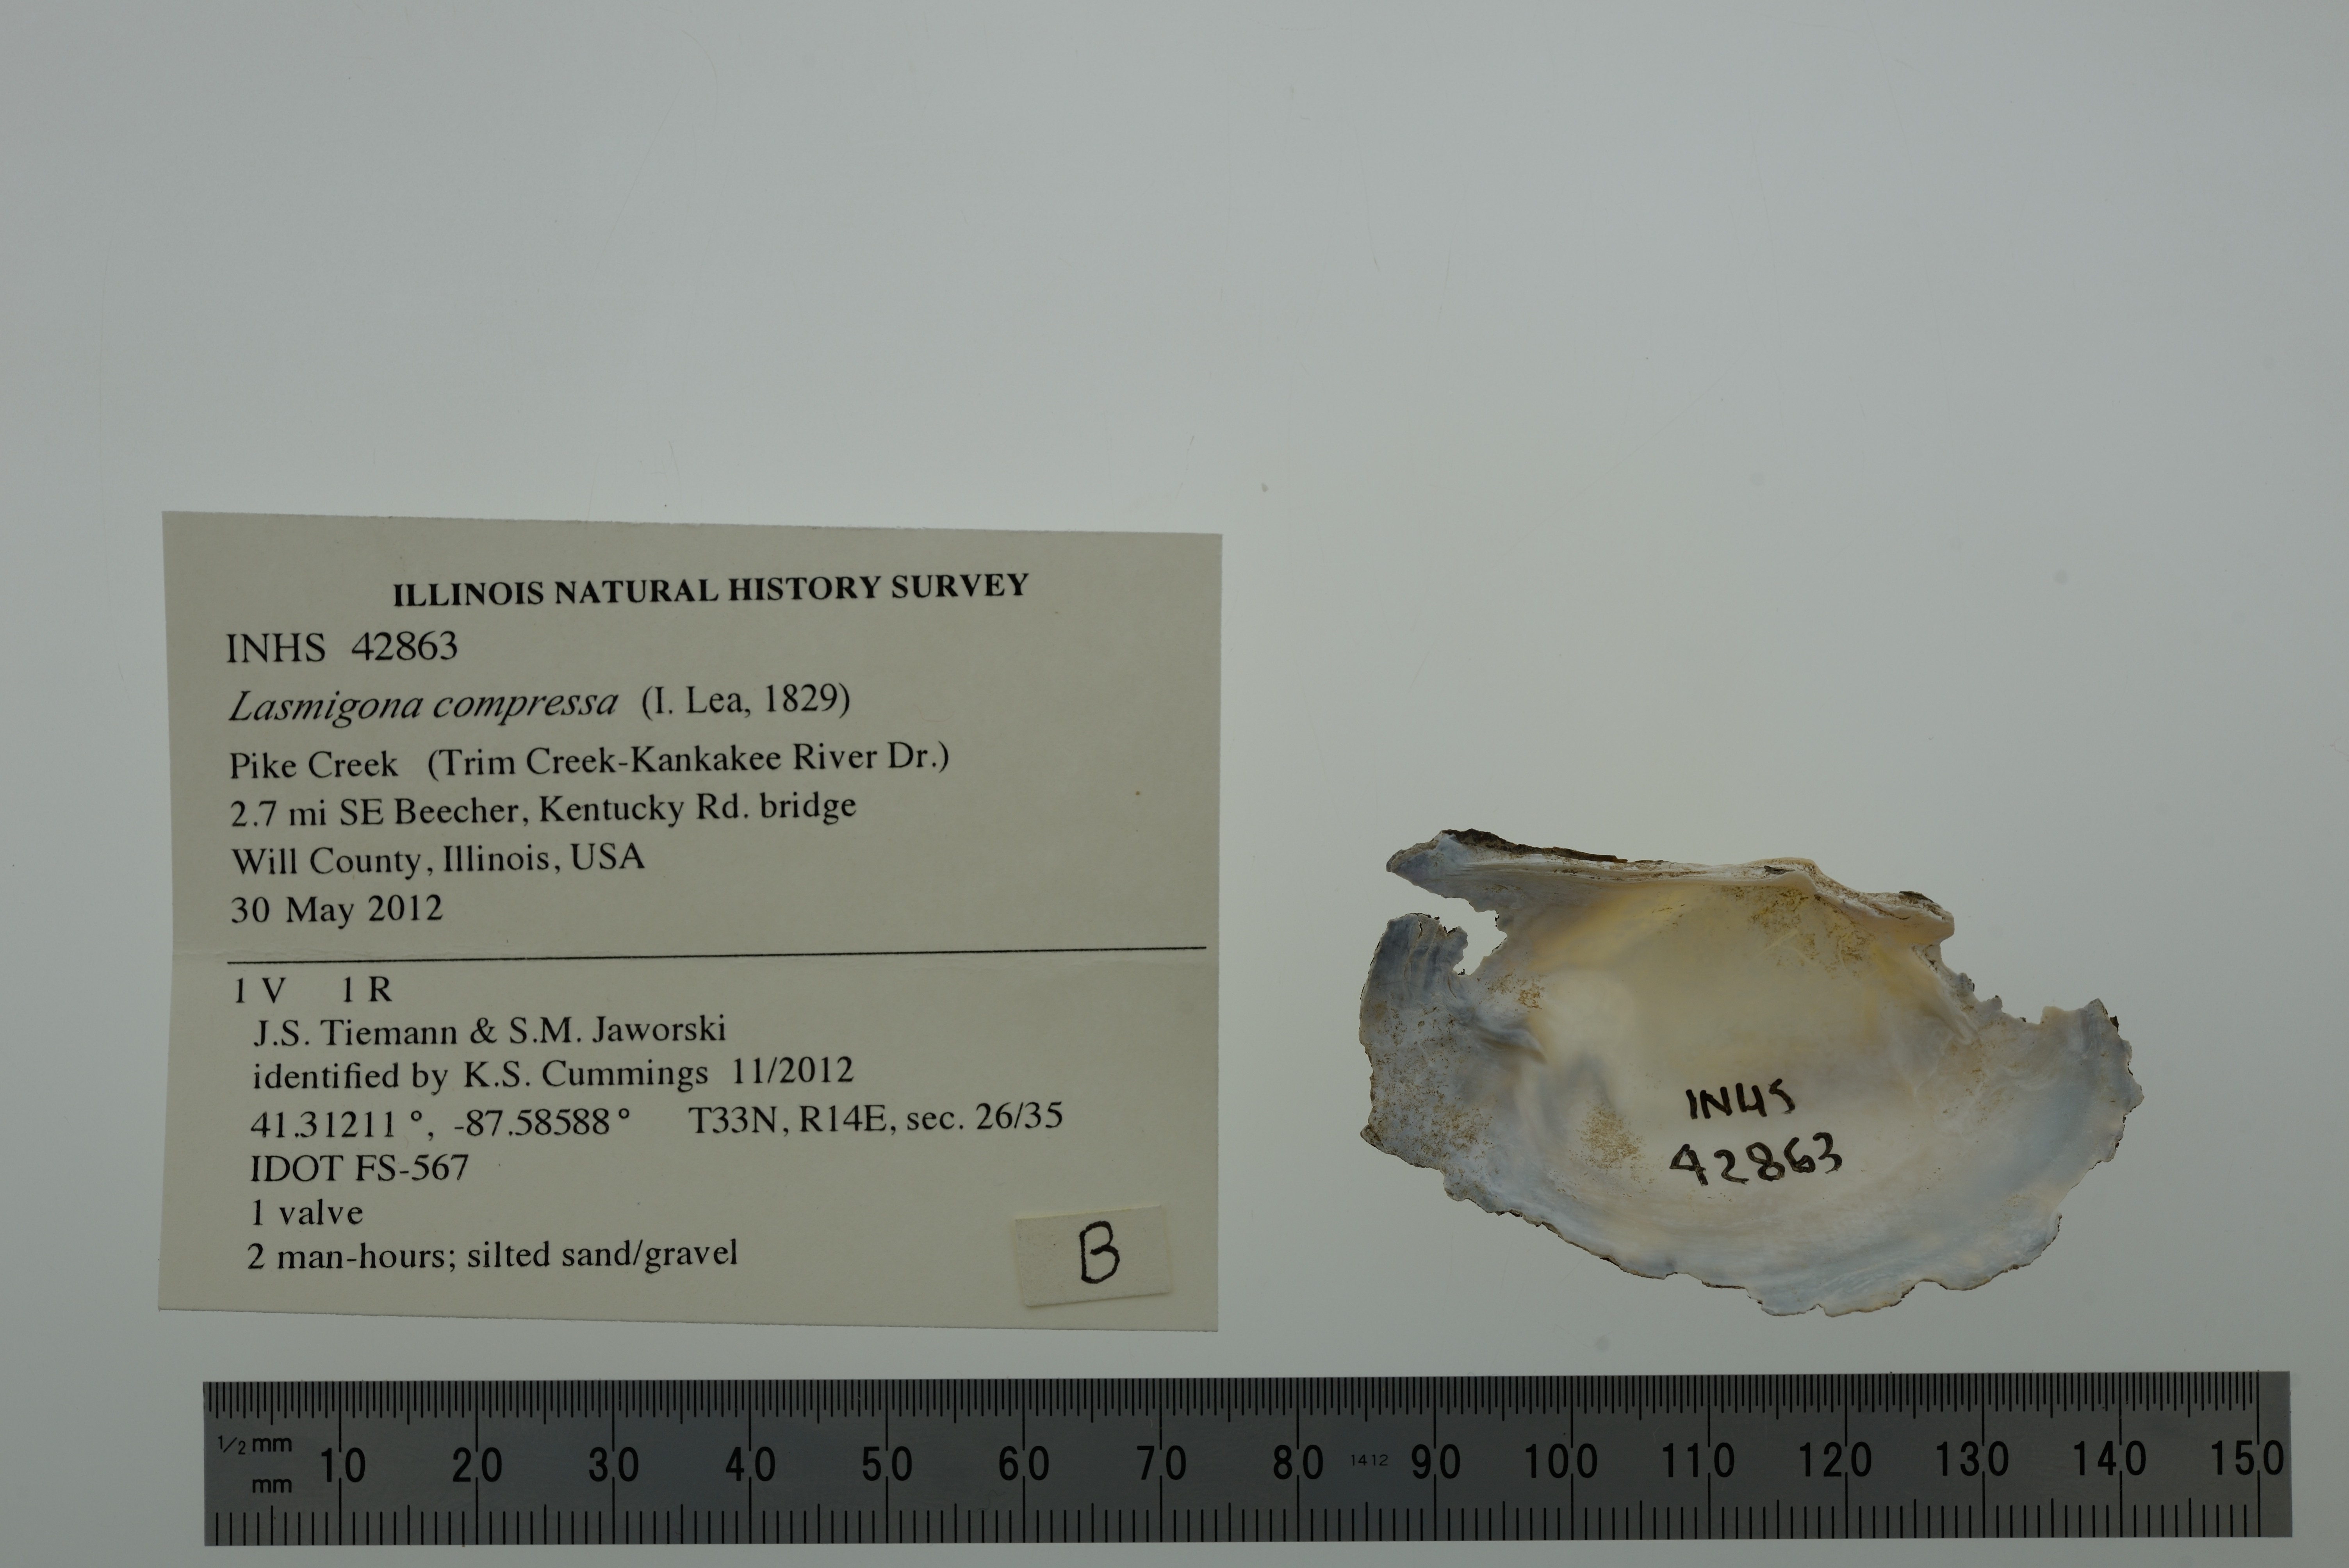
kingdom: Animalia
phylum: Mollusca
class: Bivalvia
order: Unionida
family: Unionidae
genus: Lasmigona
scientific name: Lasmigona compressa
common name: Creek heelsplitter
